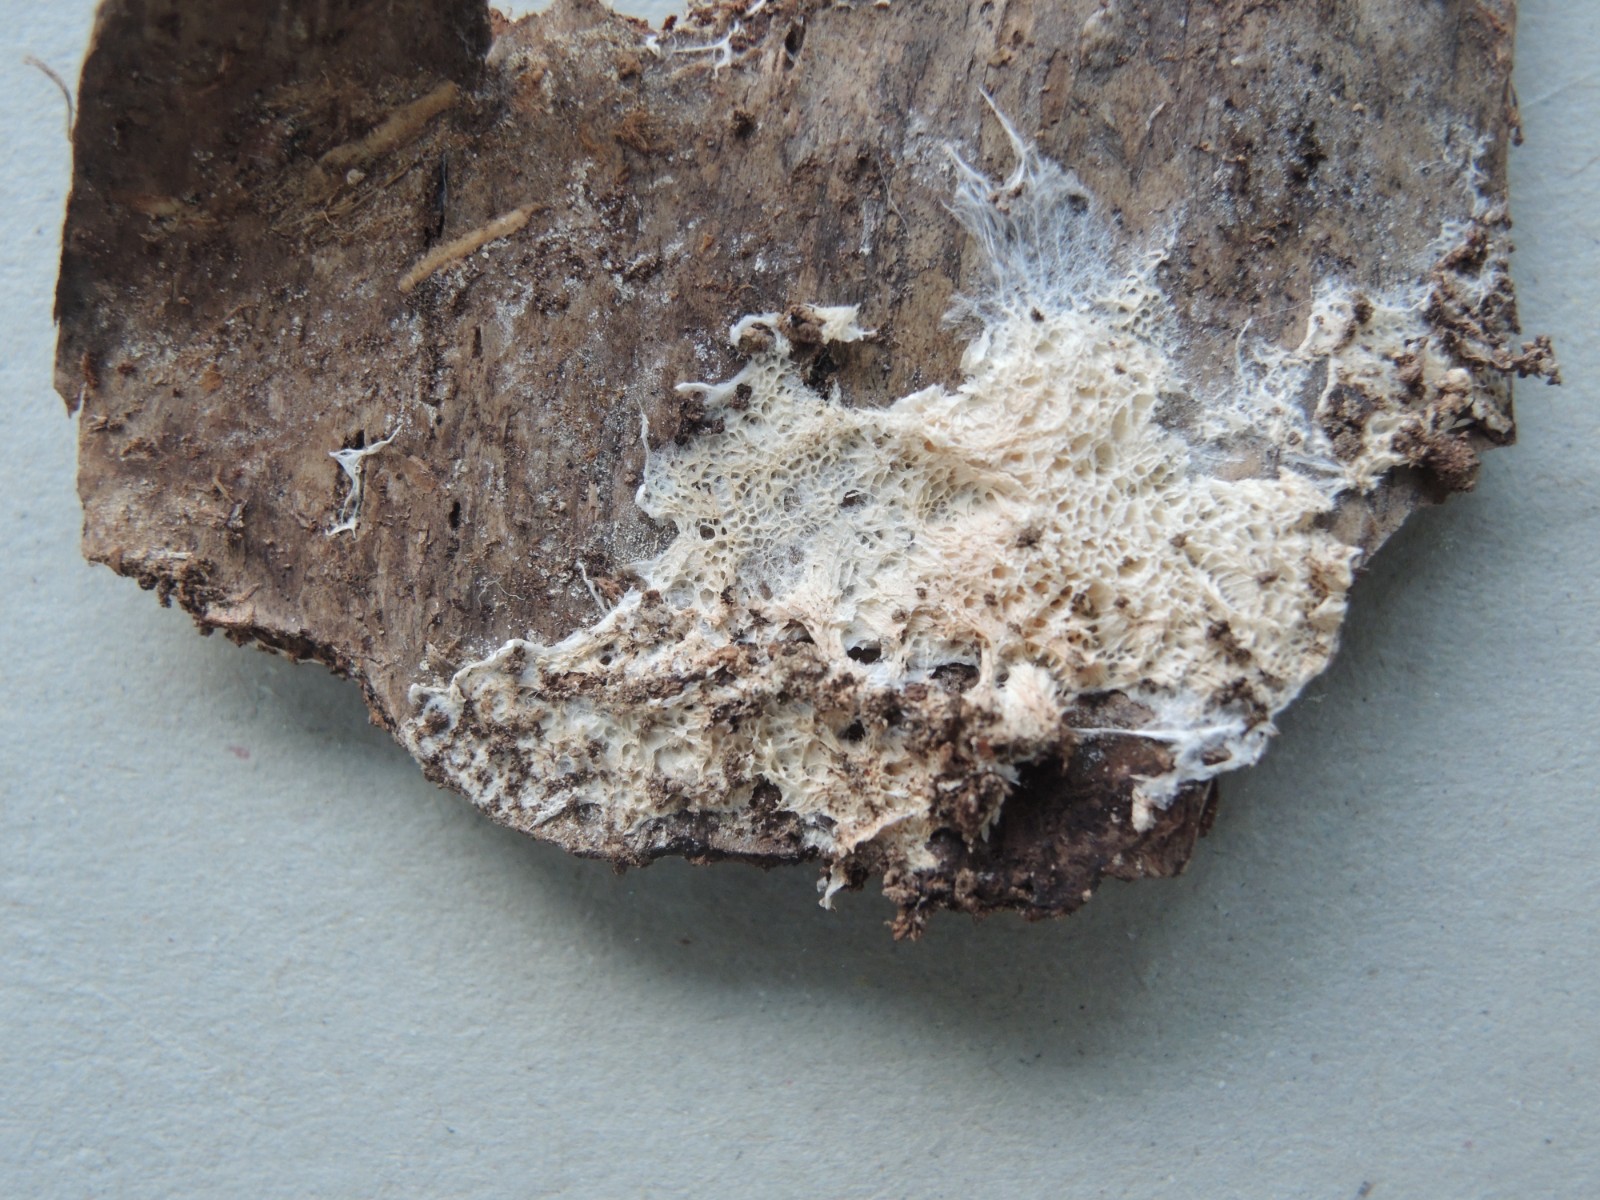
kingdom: Fungi
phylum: Basidiomycota
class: Agaricomycetes
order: Trechisporales
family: Sistotremataceae
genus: Trechispora
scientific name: Trechispora
